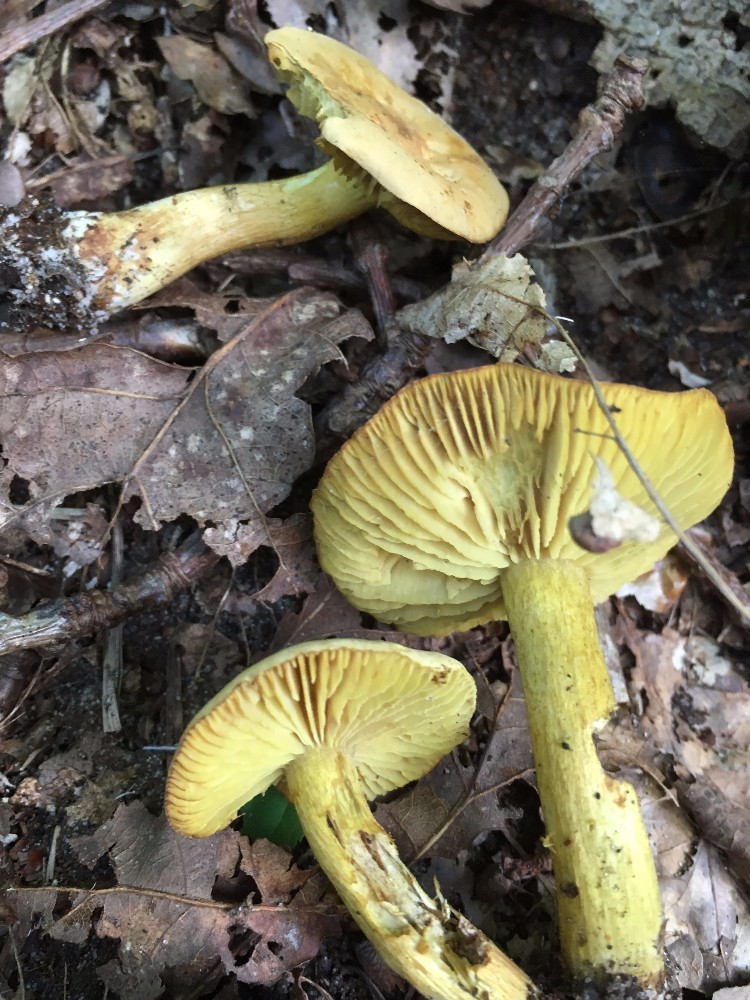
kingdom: Fungi
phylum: Basidiomycota
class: Agaricomycetes
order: Agaricales
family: Tricholomataceae
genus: Tricholoma
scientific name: Tricholoma sulphureum
